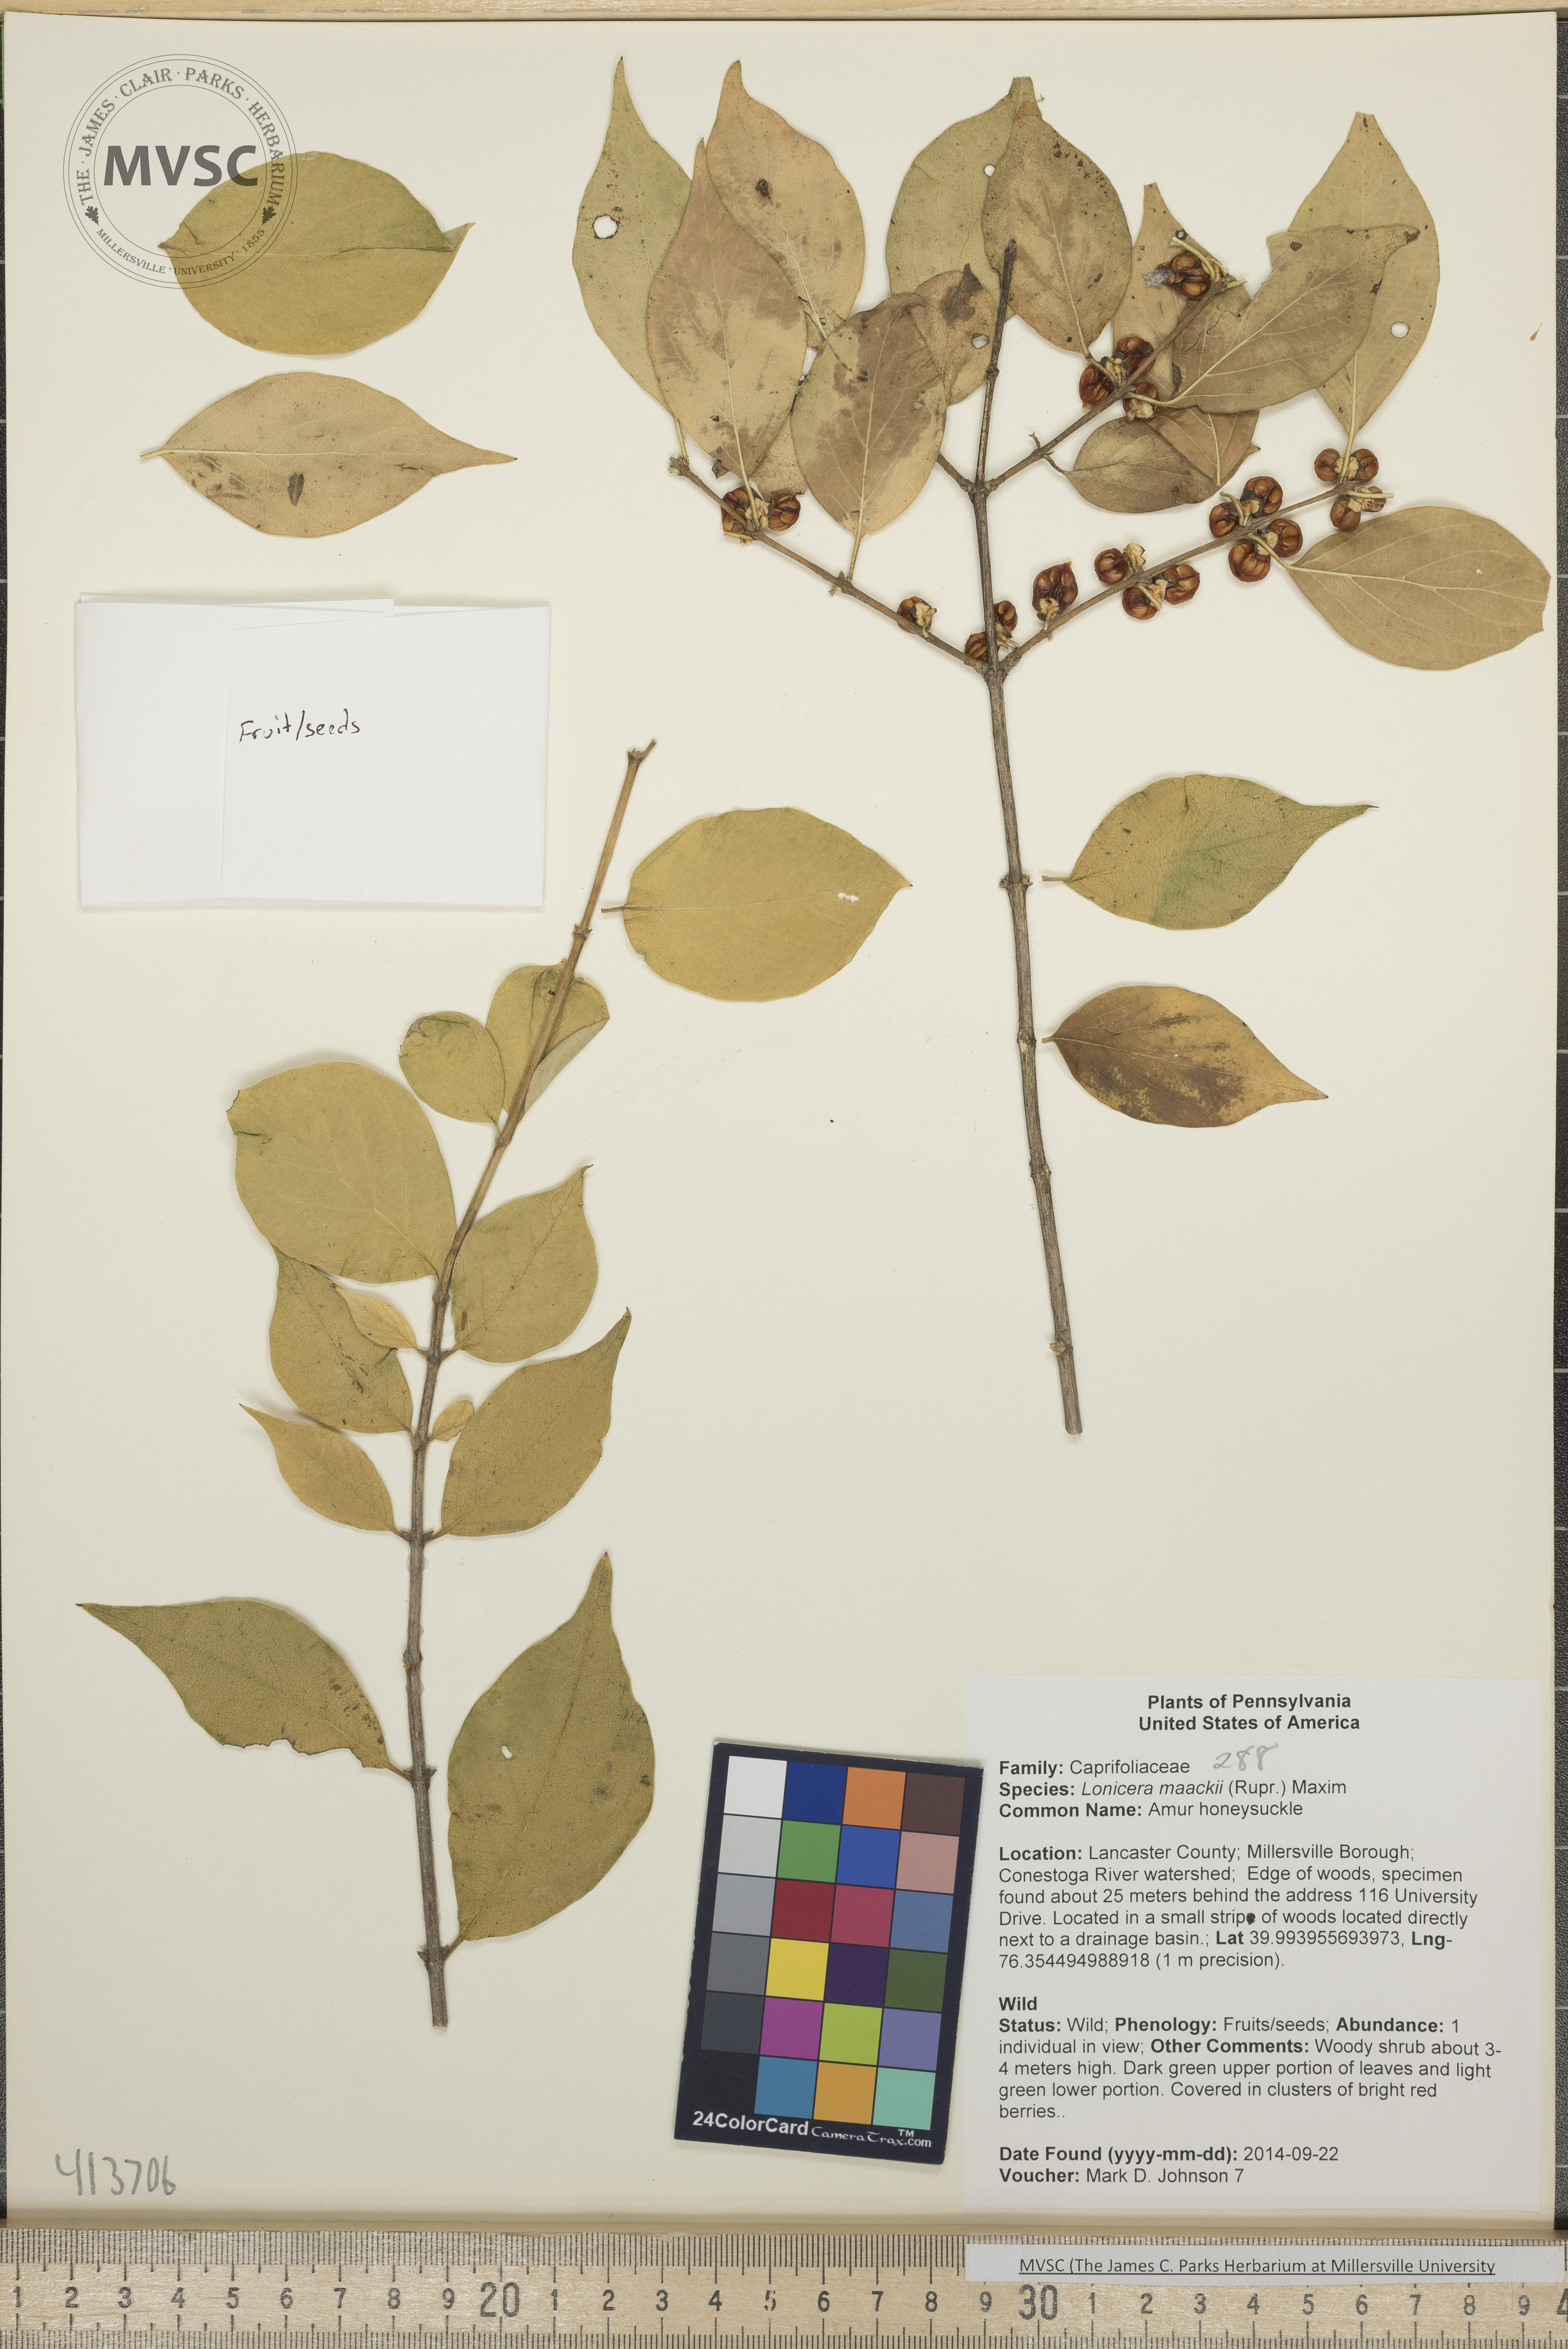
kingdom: Plantae
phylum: Tracheophyta
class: Magnoliopsida
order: Dipsacales
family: Caprifoliaceae
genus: Lonicera
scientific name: Lonicera maackii
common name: Amur honeysuckle
